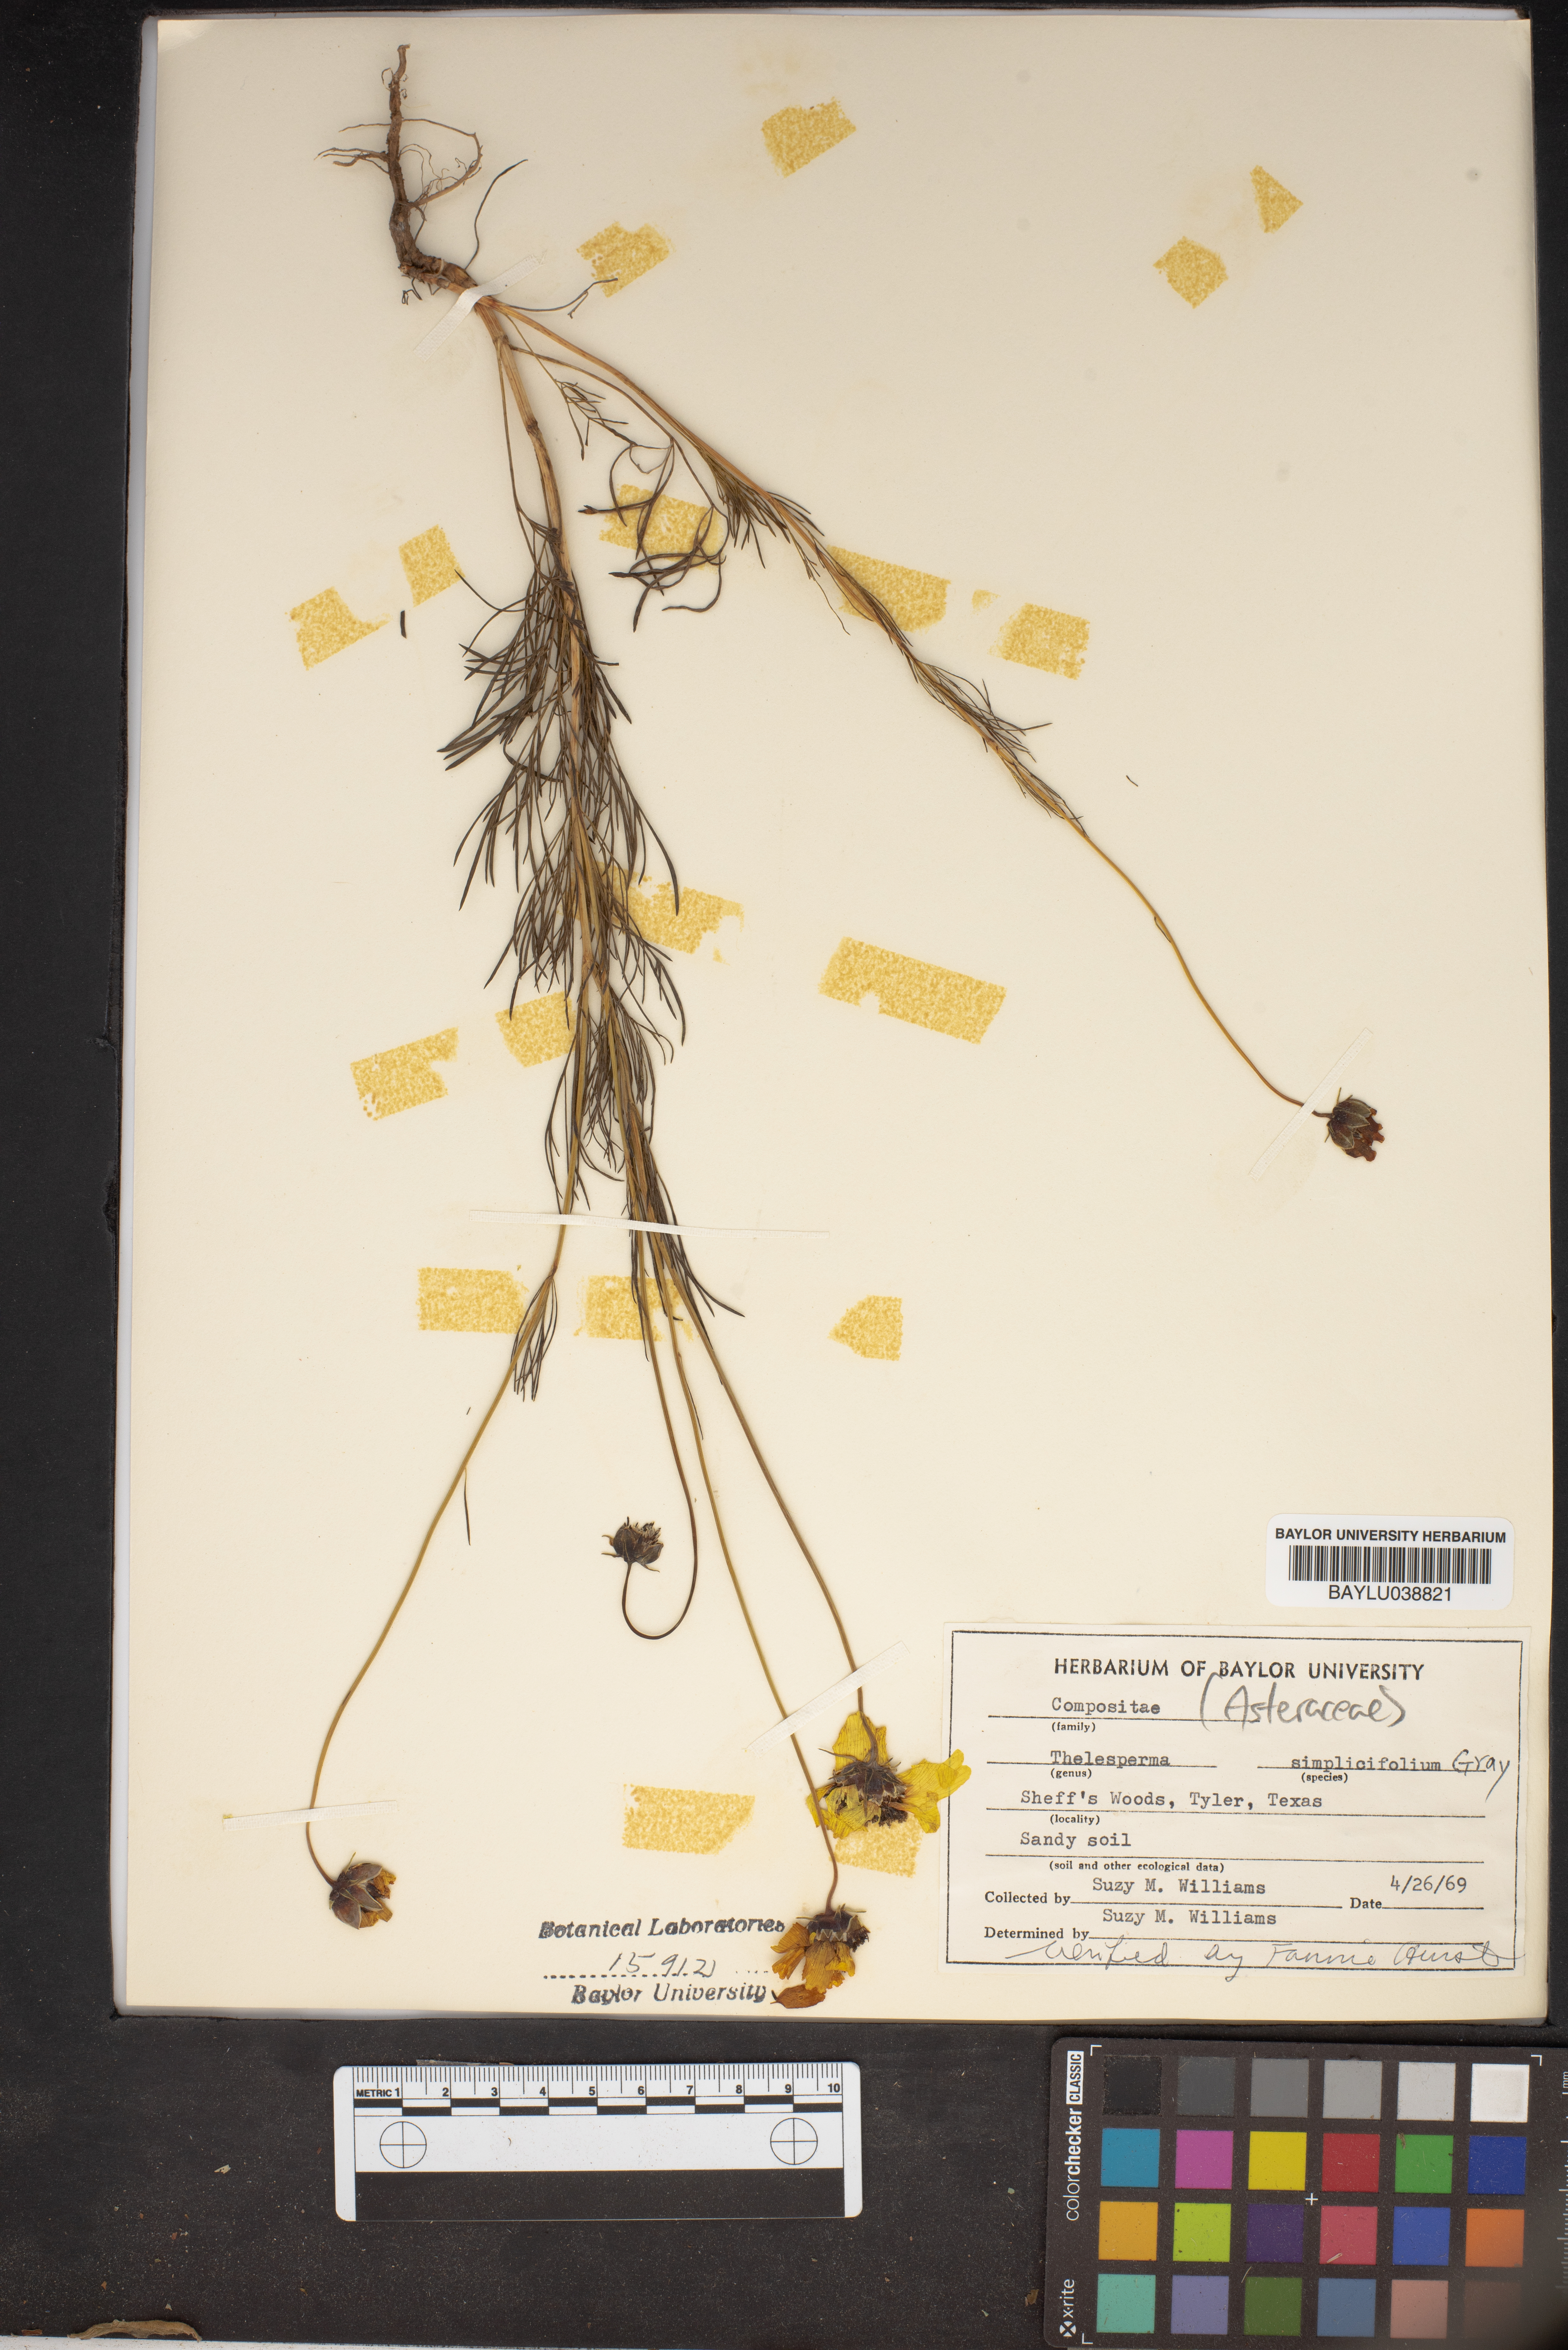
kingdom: Plantae
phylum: Tracheophyta
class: Magnoliopsida
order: Asterales
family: Asteraceae
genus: Thelesperma
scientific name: Thelesperma simplicifolium
